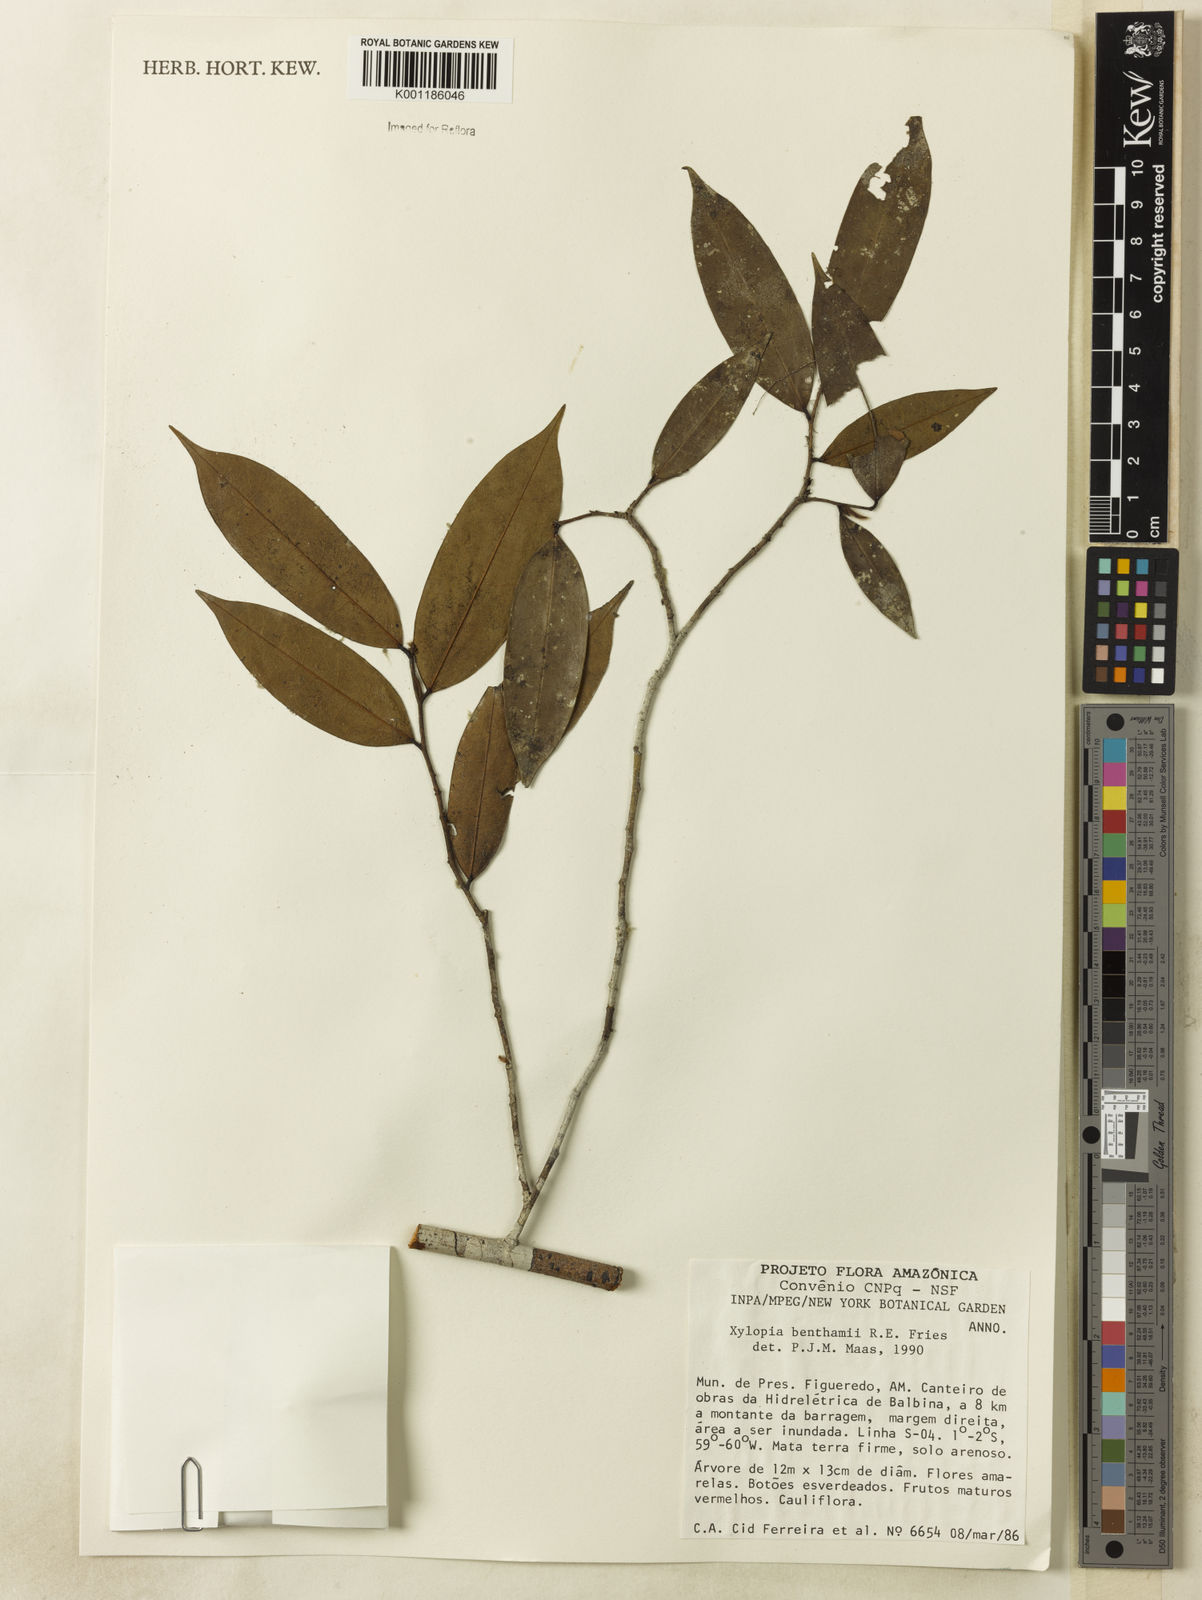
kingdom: Plantae
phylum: Tracheophyta
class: Magnoliopsida
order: Magnoliales
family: Annonaceae
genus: Xylopia
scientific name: Xylopia benthamii
